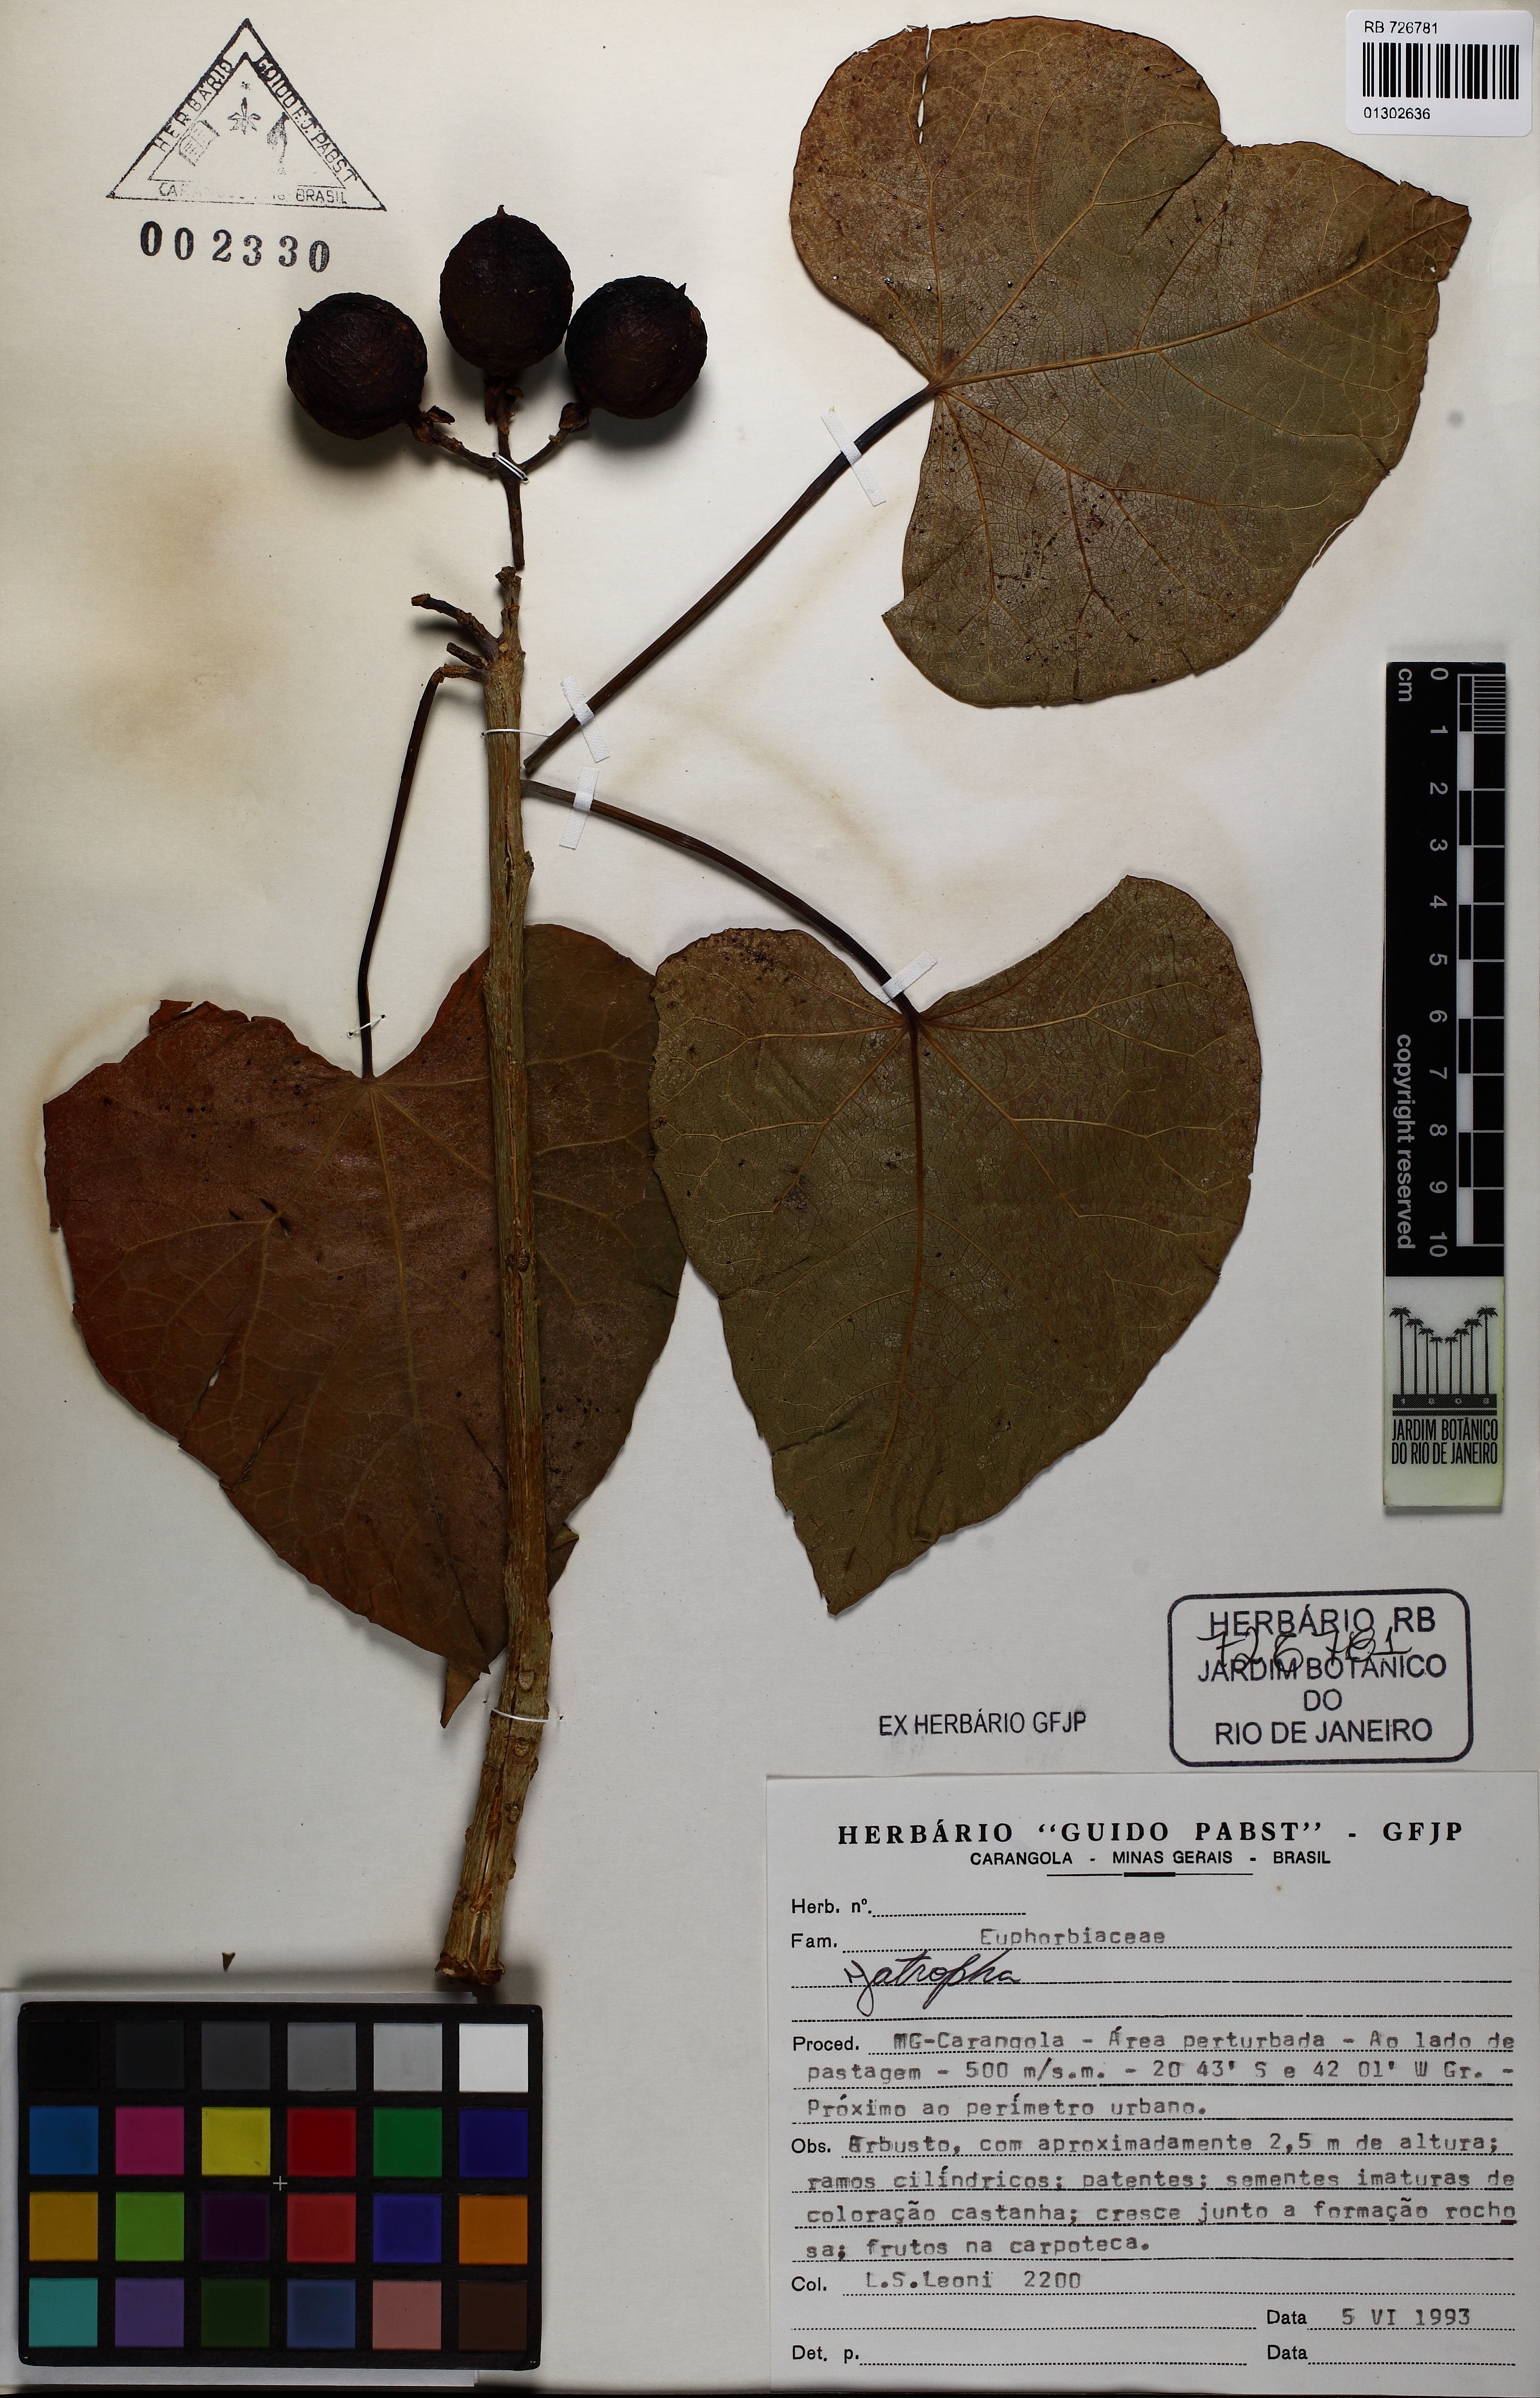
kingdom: Plantae
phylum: Tracheophyta
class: Magnoliopsida
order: Malpighiales
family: Euphorbiaceae
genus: Jatropha
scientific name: Jatropha curcas
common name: Barbados nut
